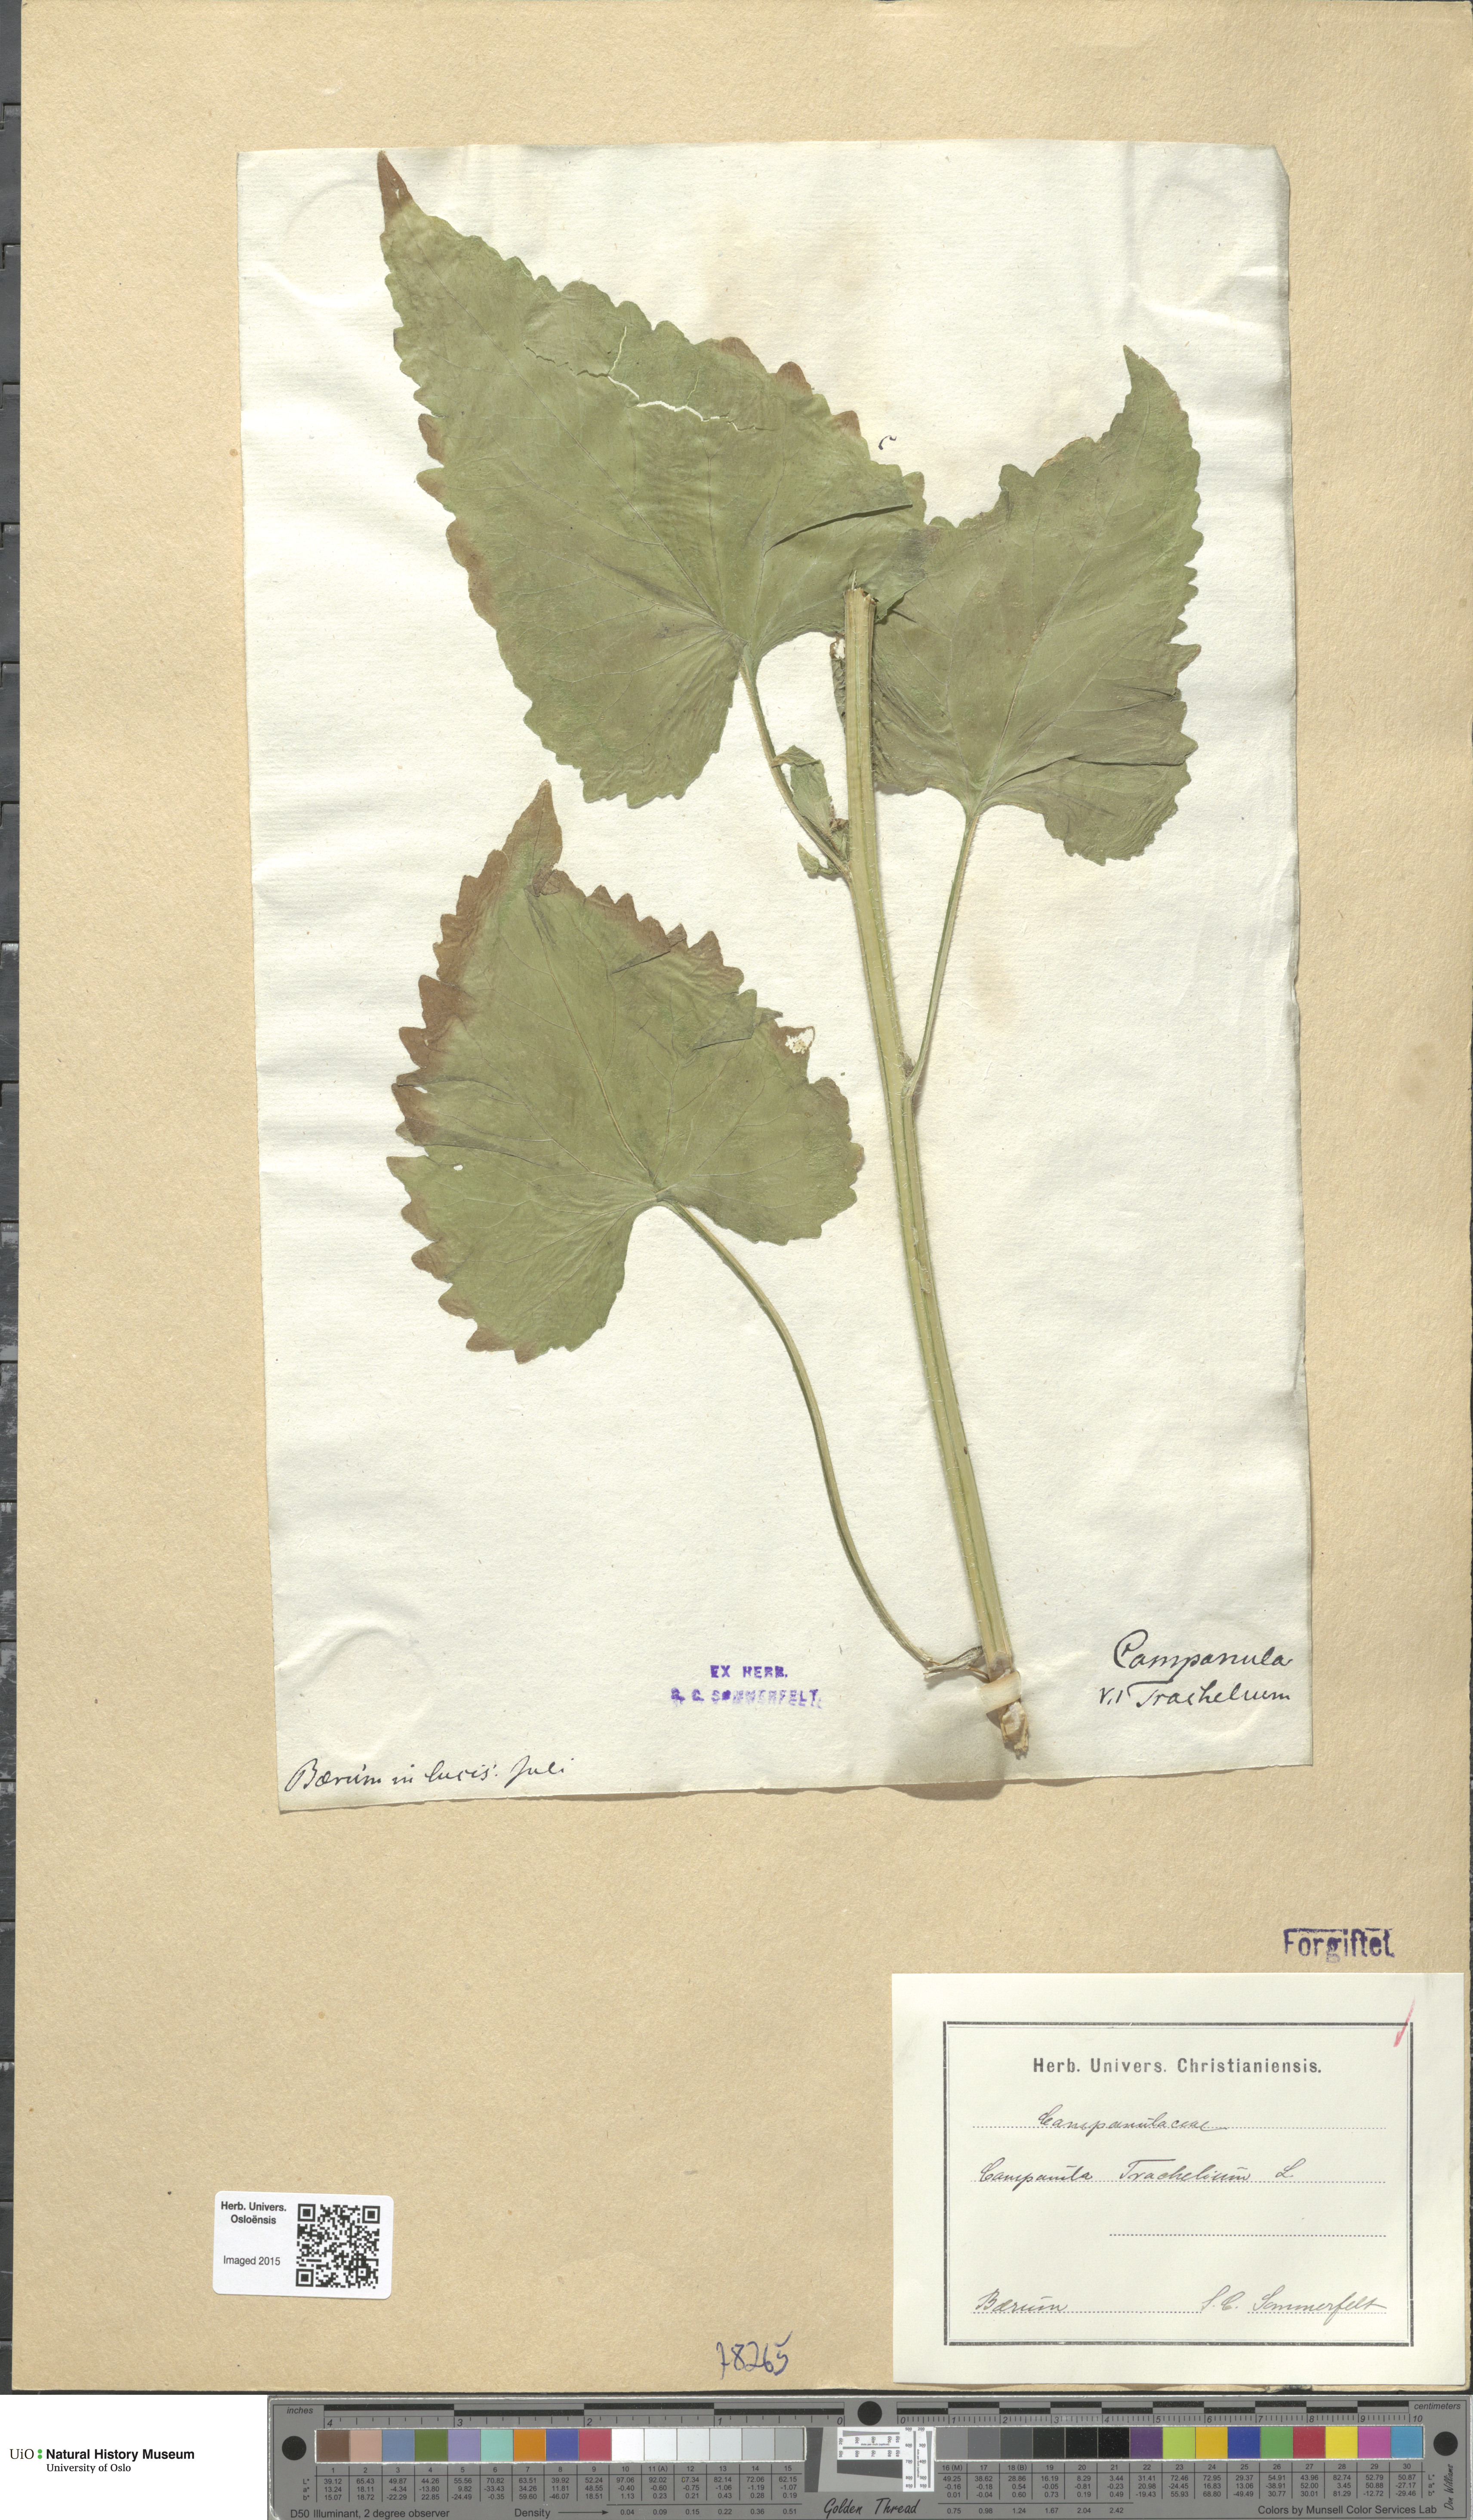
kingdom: Plantae
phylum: Tracheophyta
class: Magnoliopsida
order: Asterales
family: Campanulaceae
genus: Campanula
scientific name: Campanula trachelium
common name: Nettle-leaved bellflower
